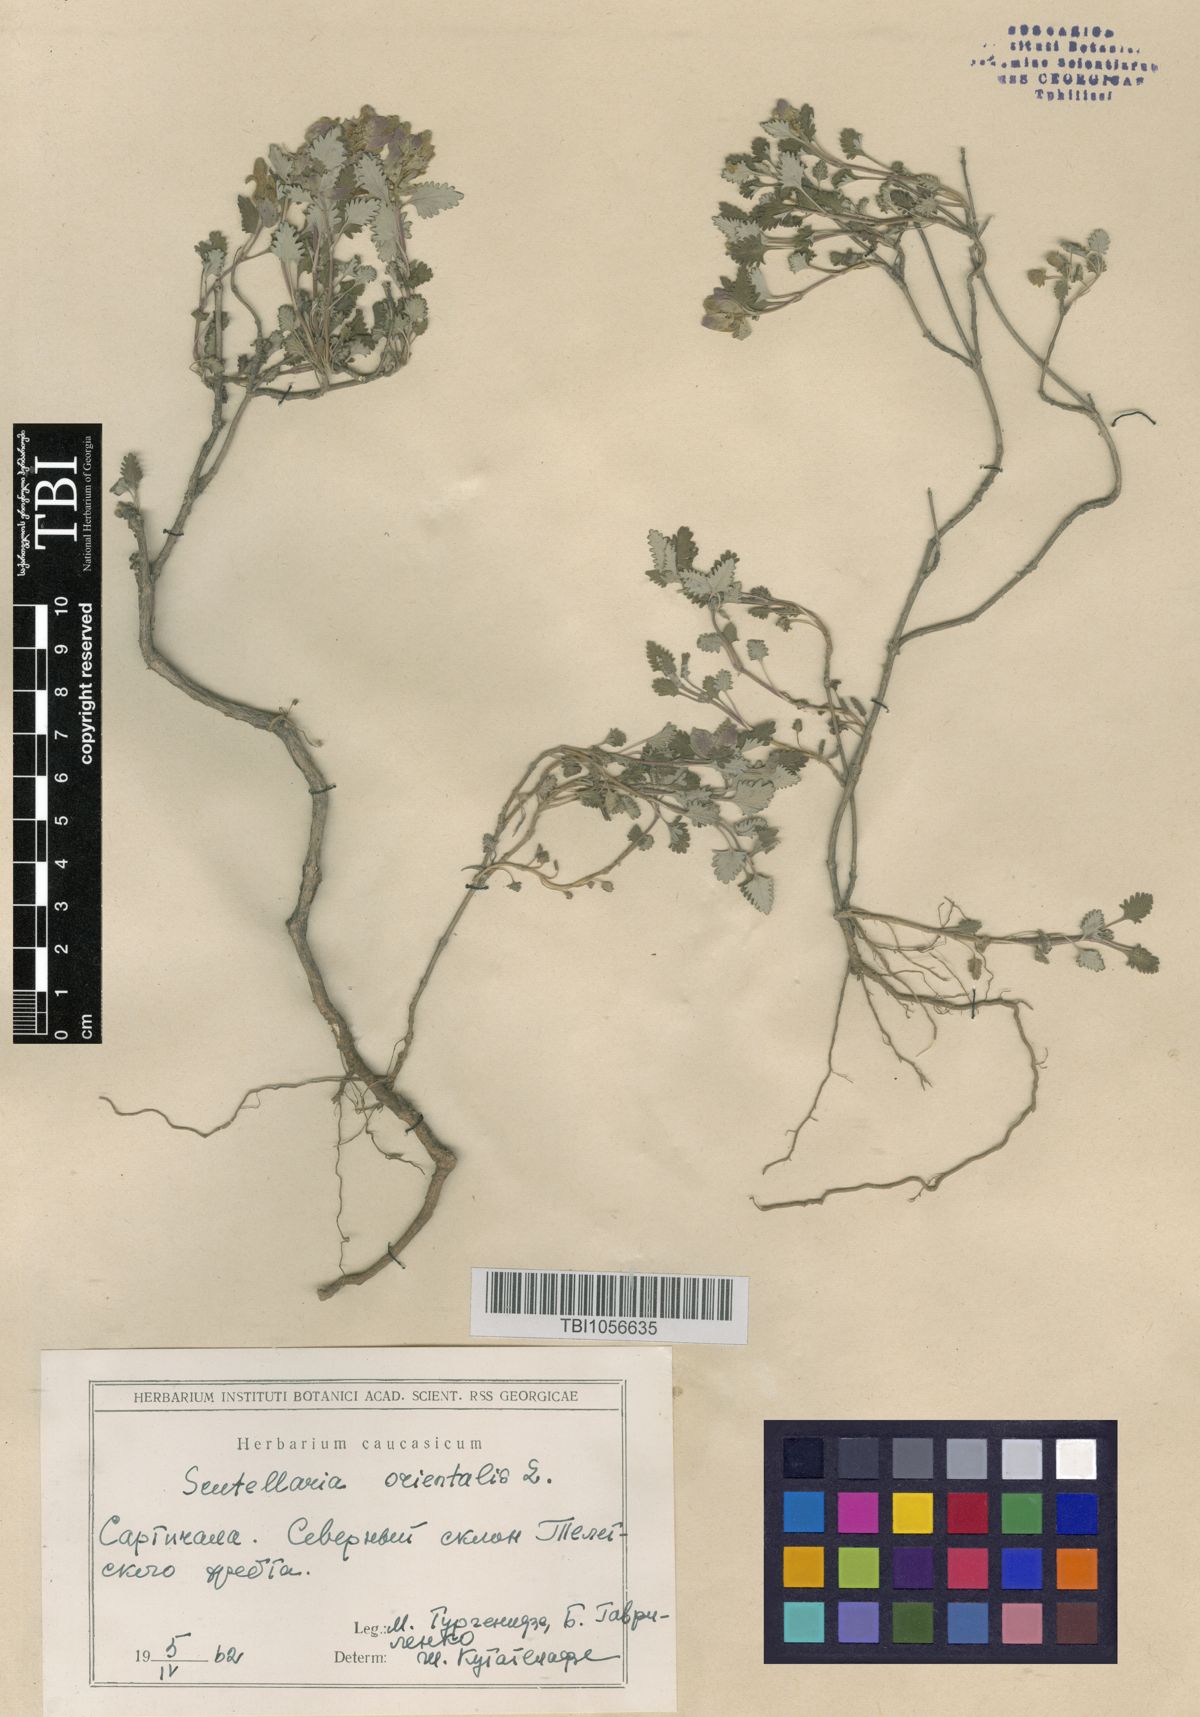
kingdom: Plantae
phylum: Tracheophyta
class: Magnoliopsida
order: Lamiales
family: Lamiaceae
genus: Scutellaria
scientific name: Scutellaria orientalis
